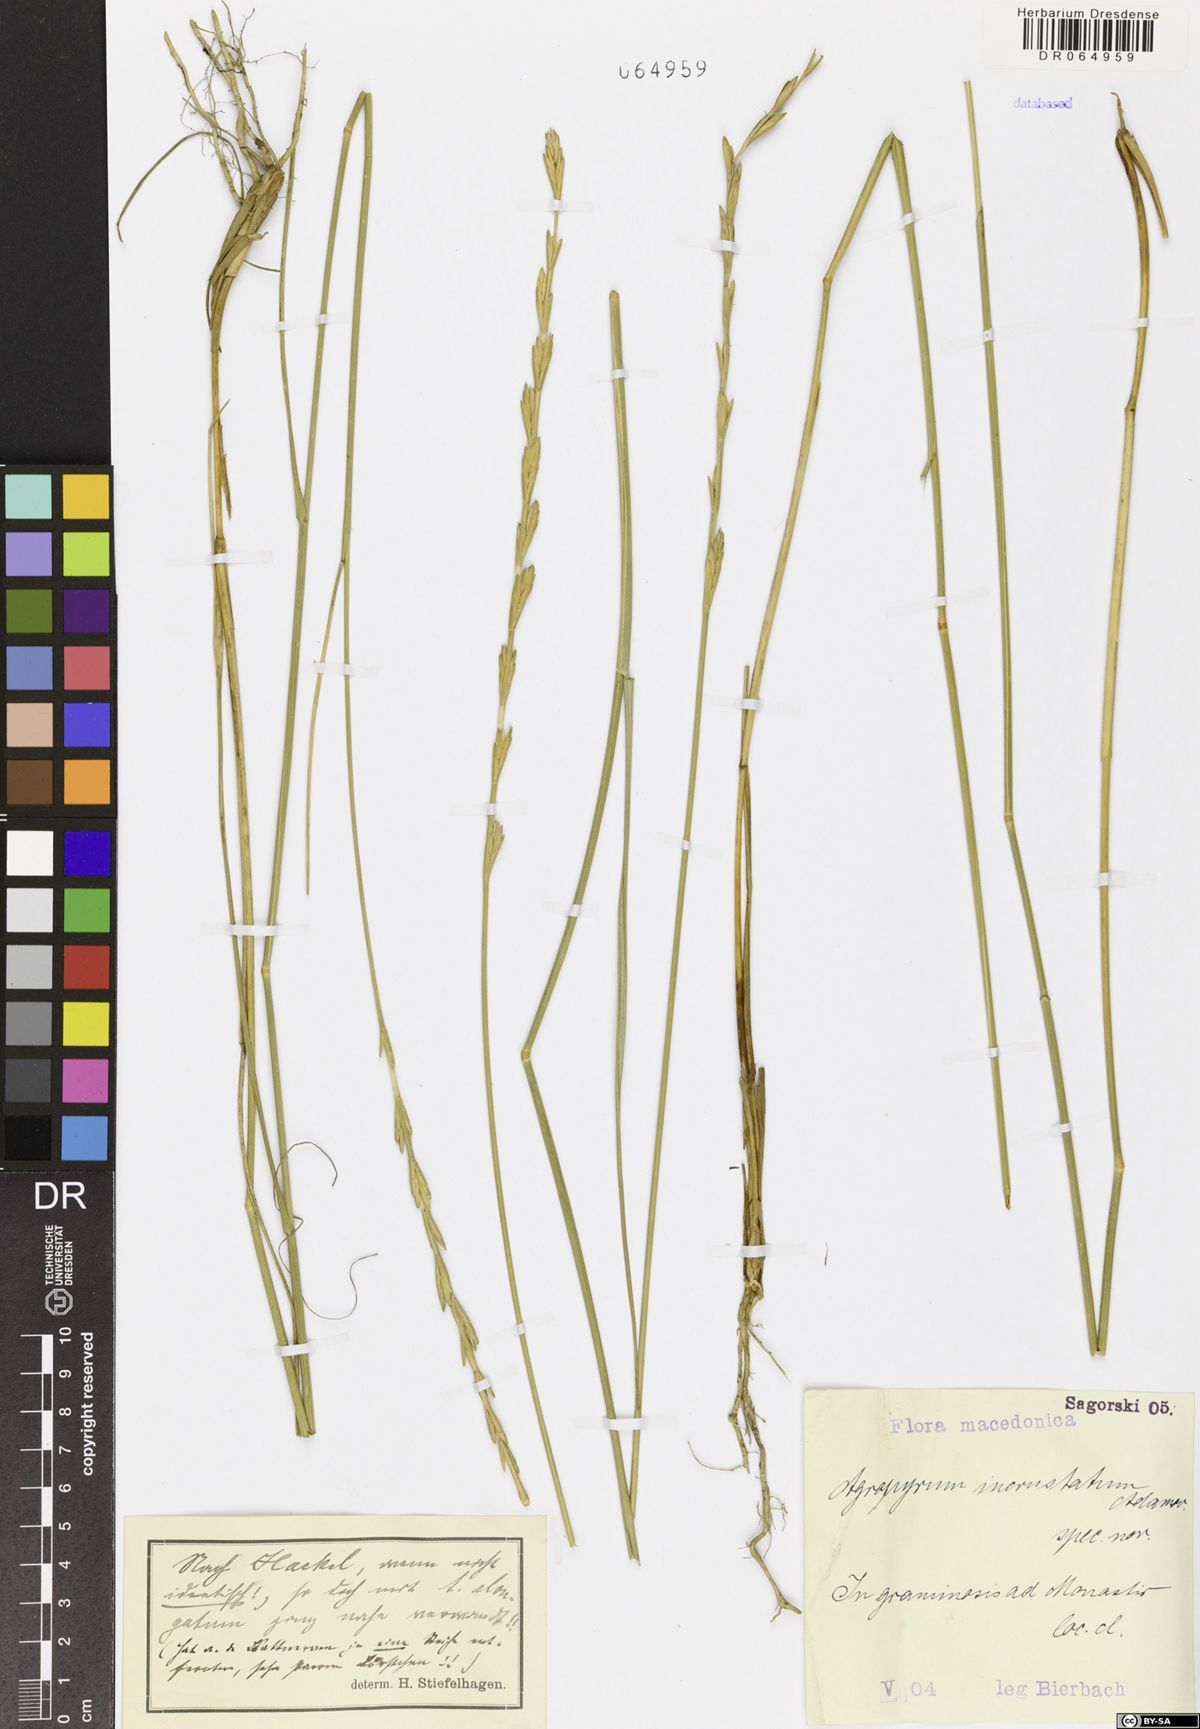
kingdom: Plantae
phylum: Tracheophyta
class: Liliopsida
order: Poales
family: Poaceae
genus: Thinopyrum
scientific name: Thinopyrum varnense
